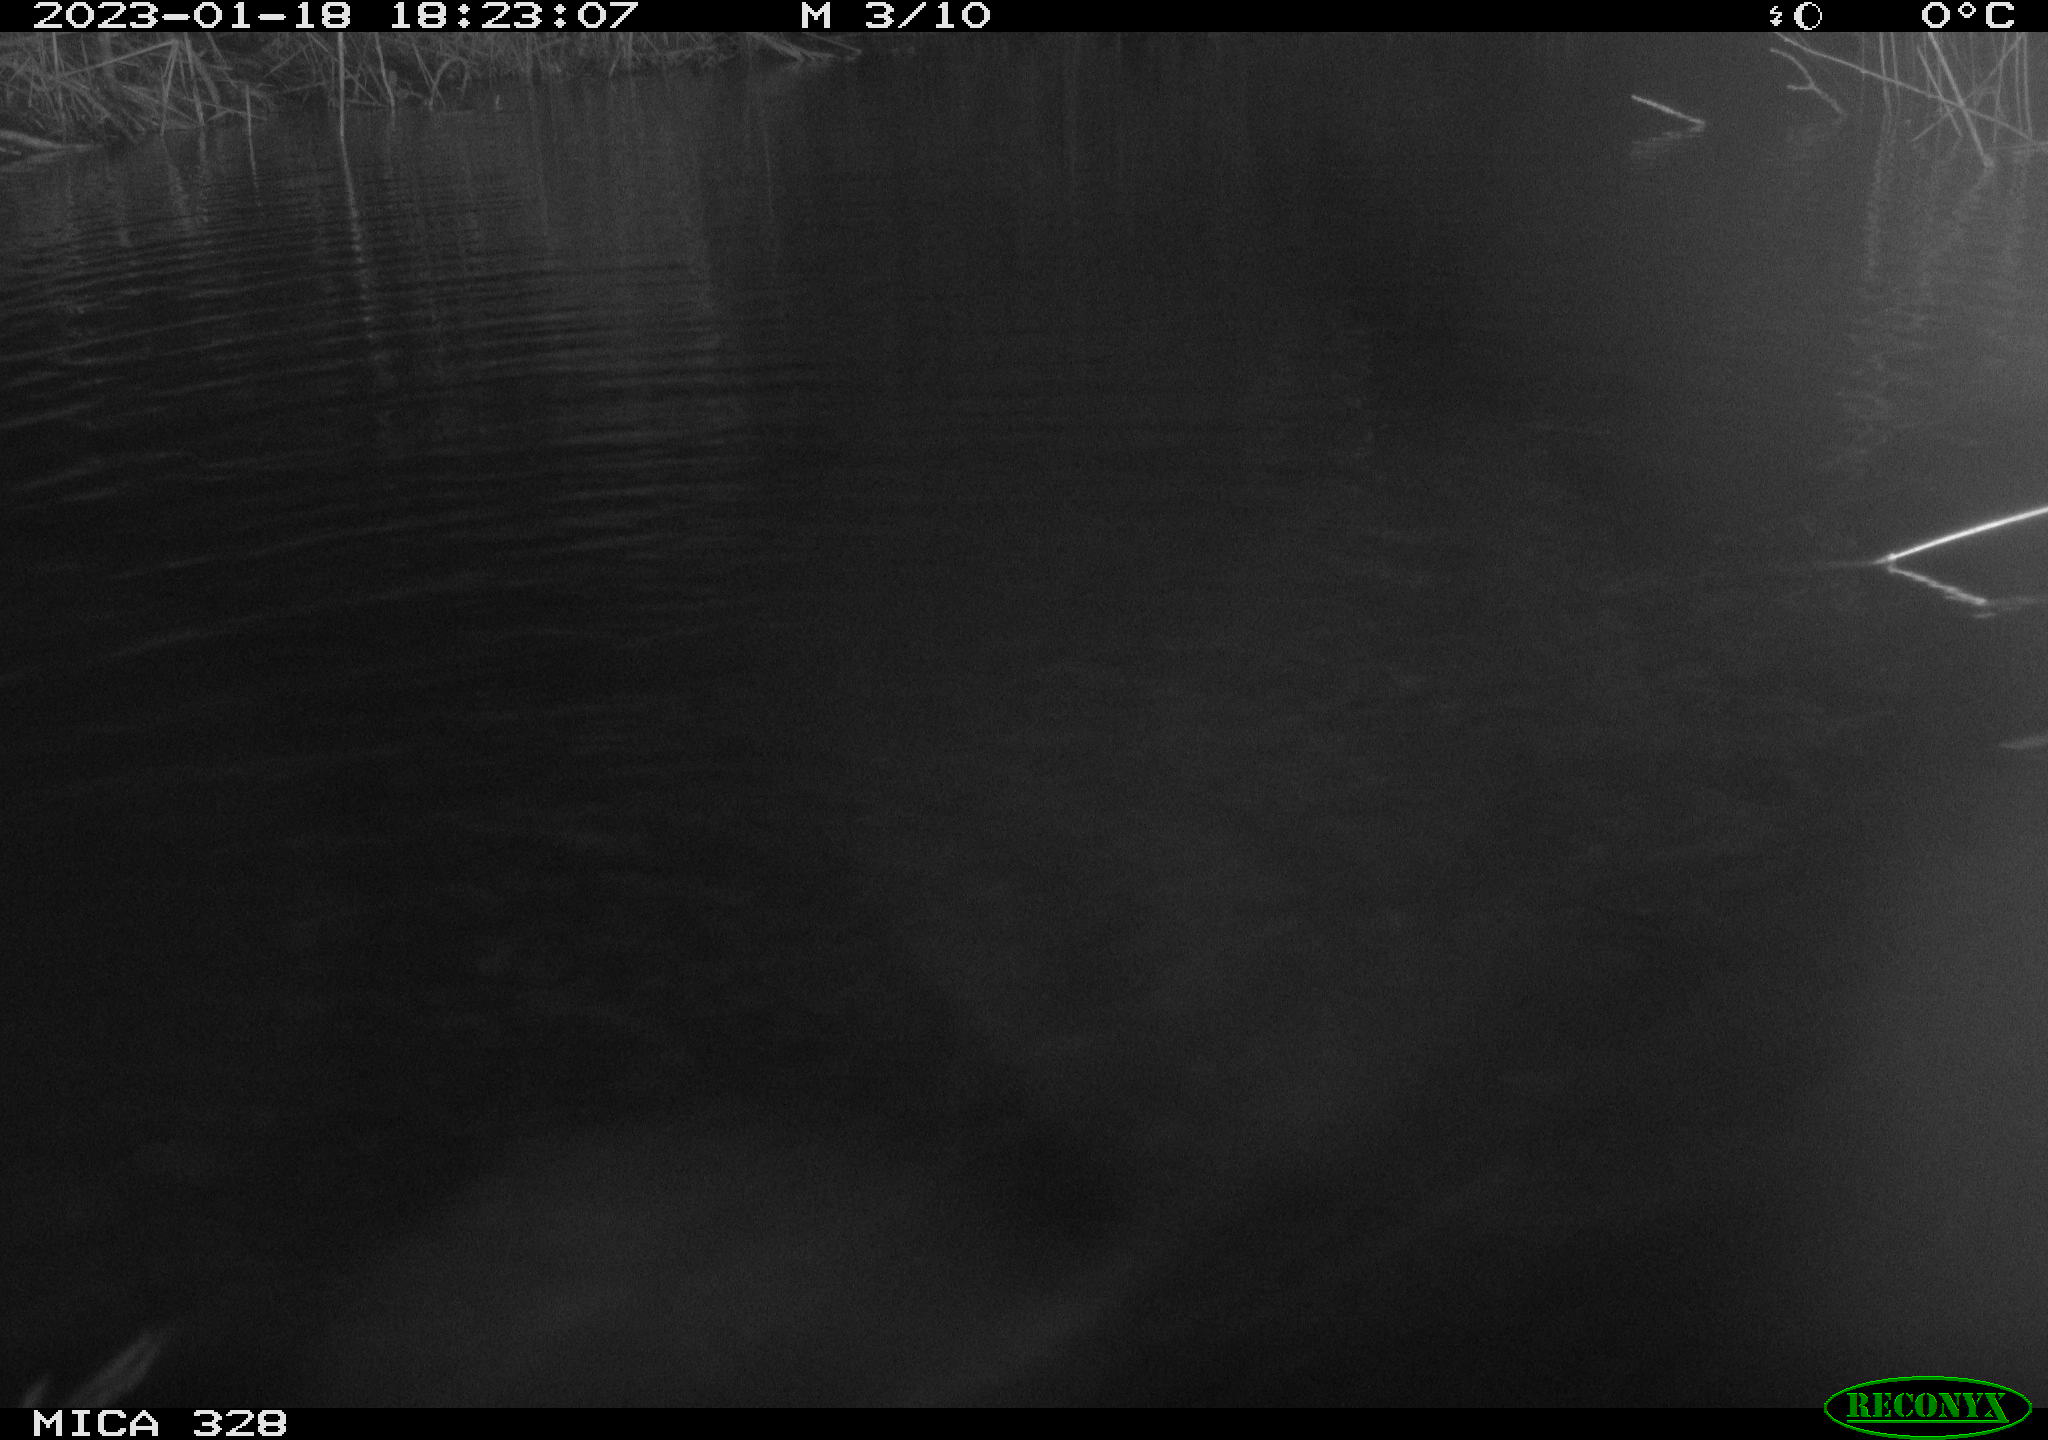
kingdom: Animalia
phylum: Chordata
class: Mammalia
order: Rodentia
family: Cricetidae
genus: Ondatra
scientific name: Ondatra zibethicus
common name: Muskrat
